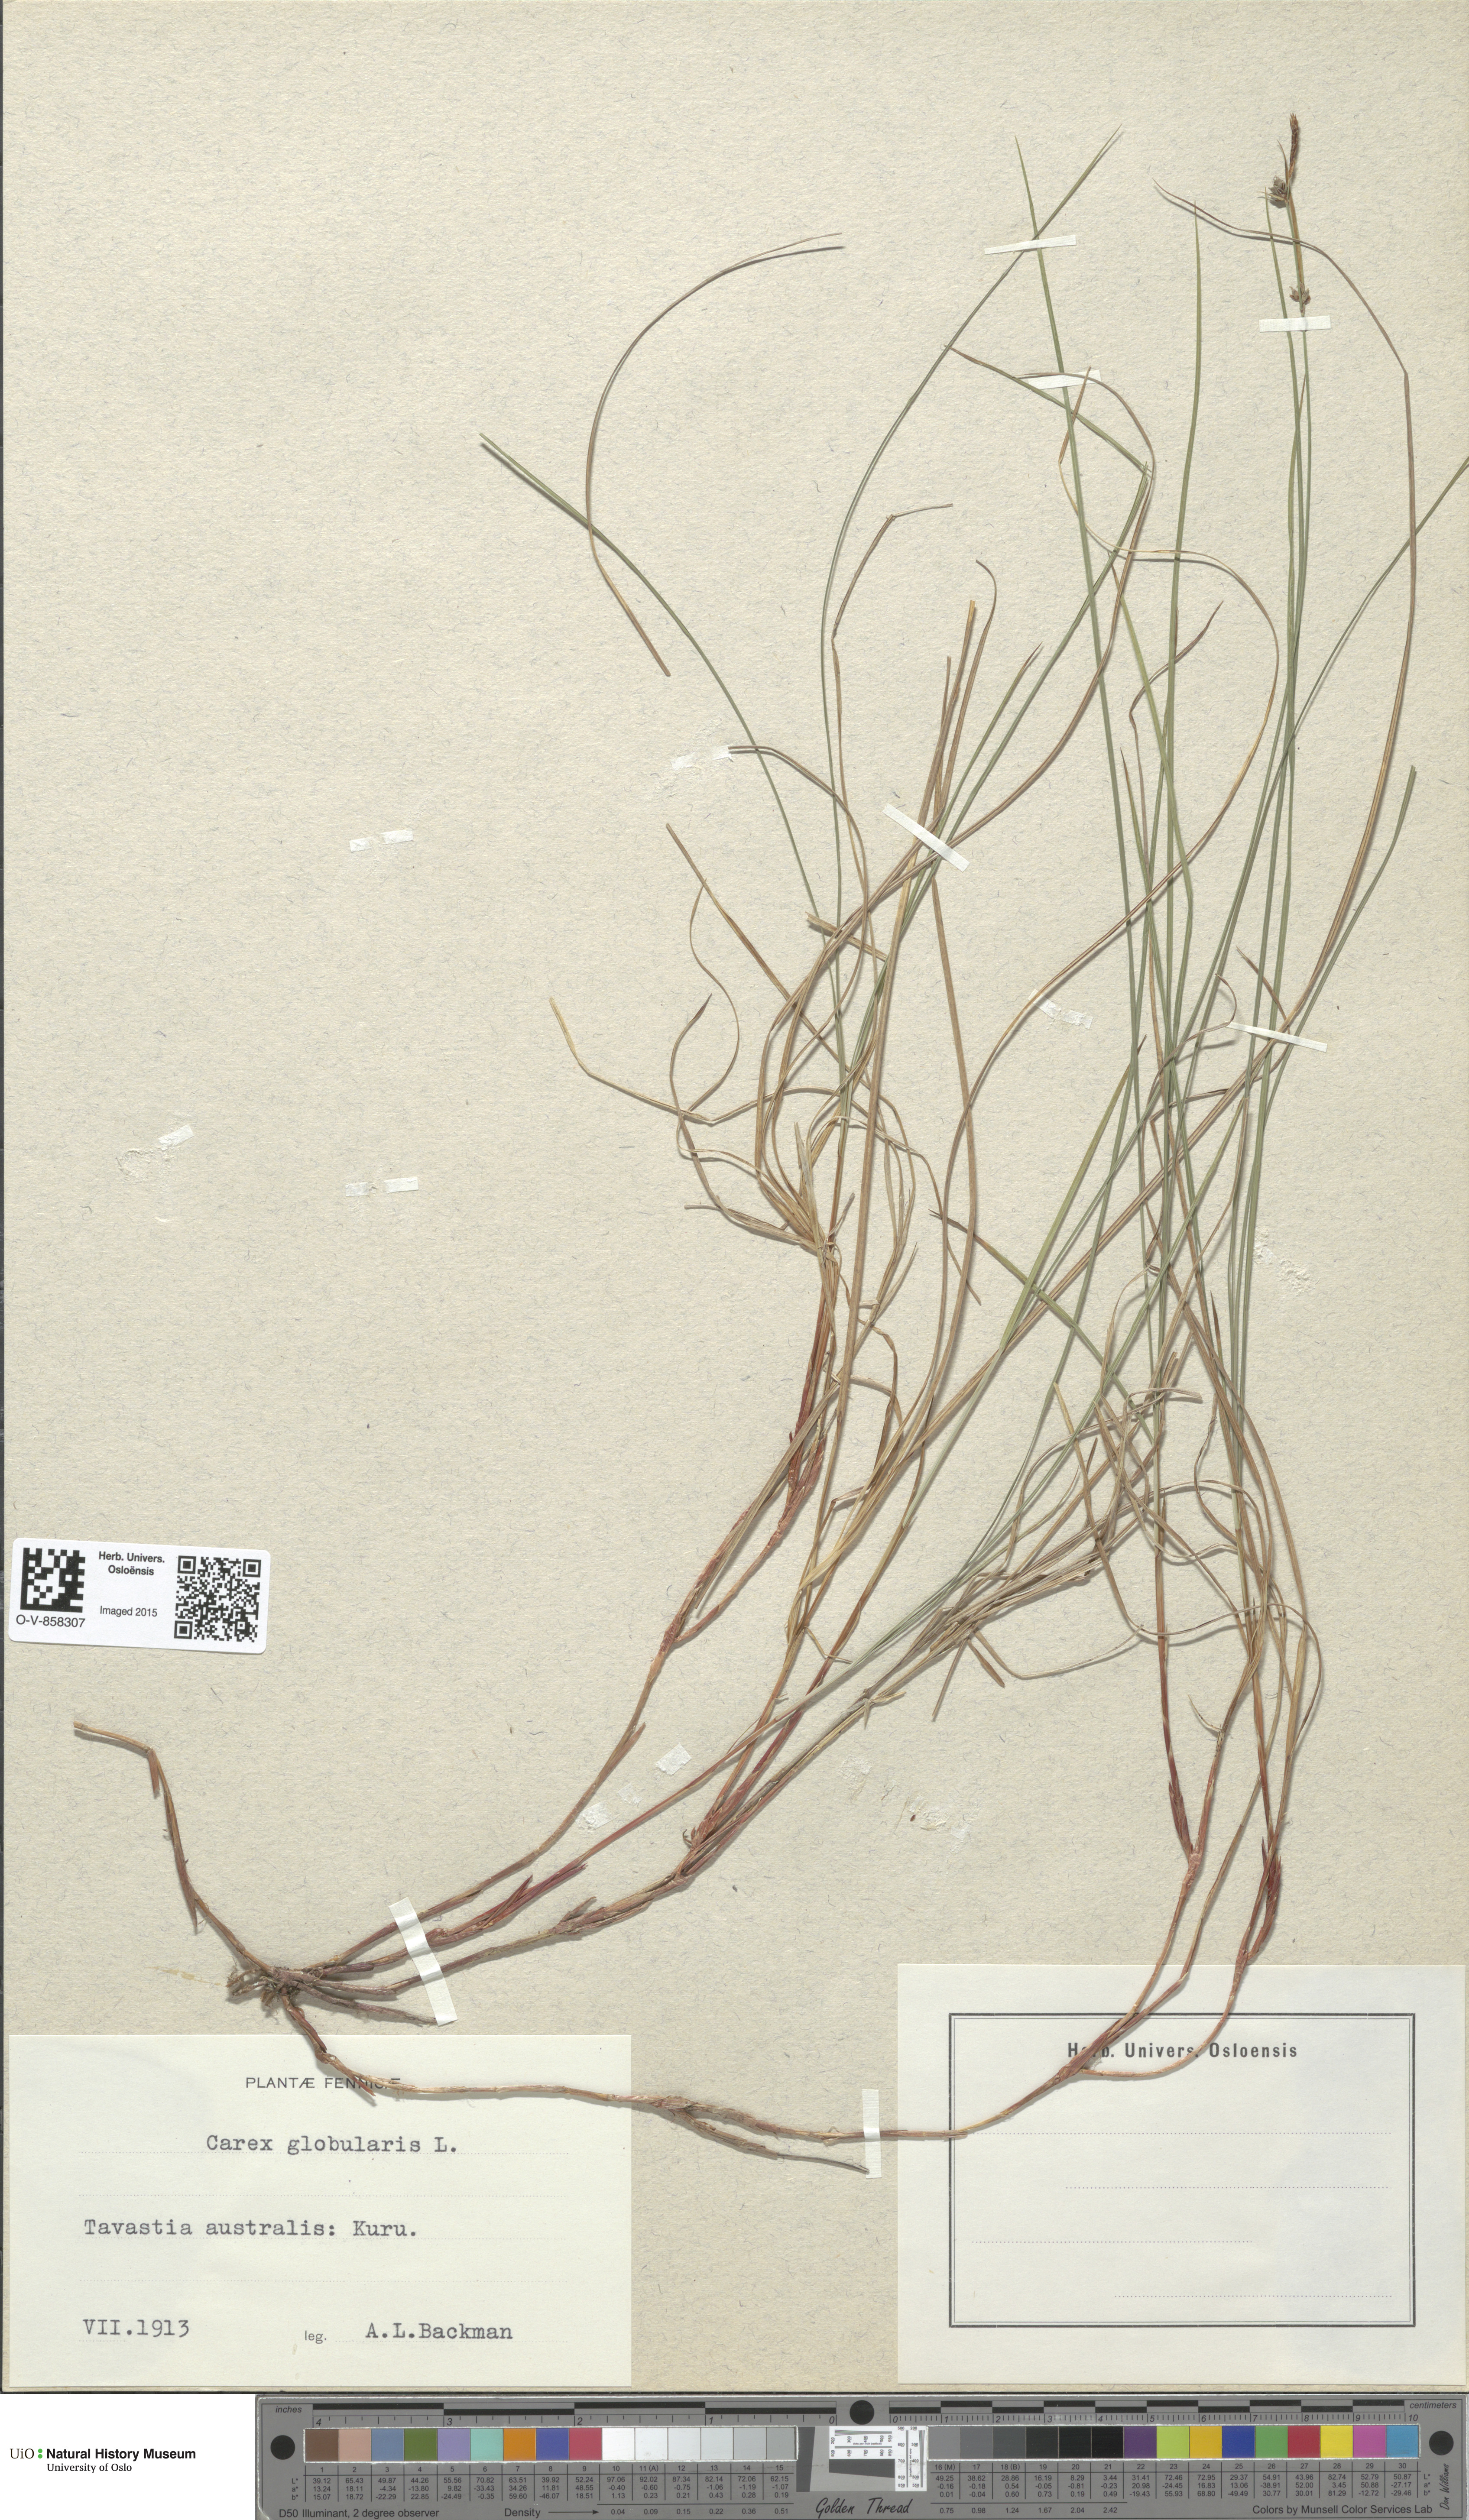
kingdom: Plantae
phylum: Tracheophyta
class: Liliopsida
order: Poales
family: Cyperaceae
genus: Carex
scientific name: Carex globularis
